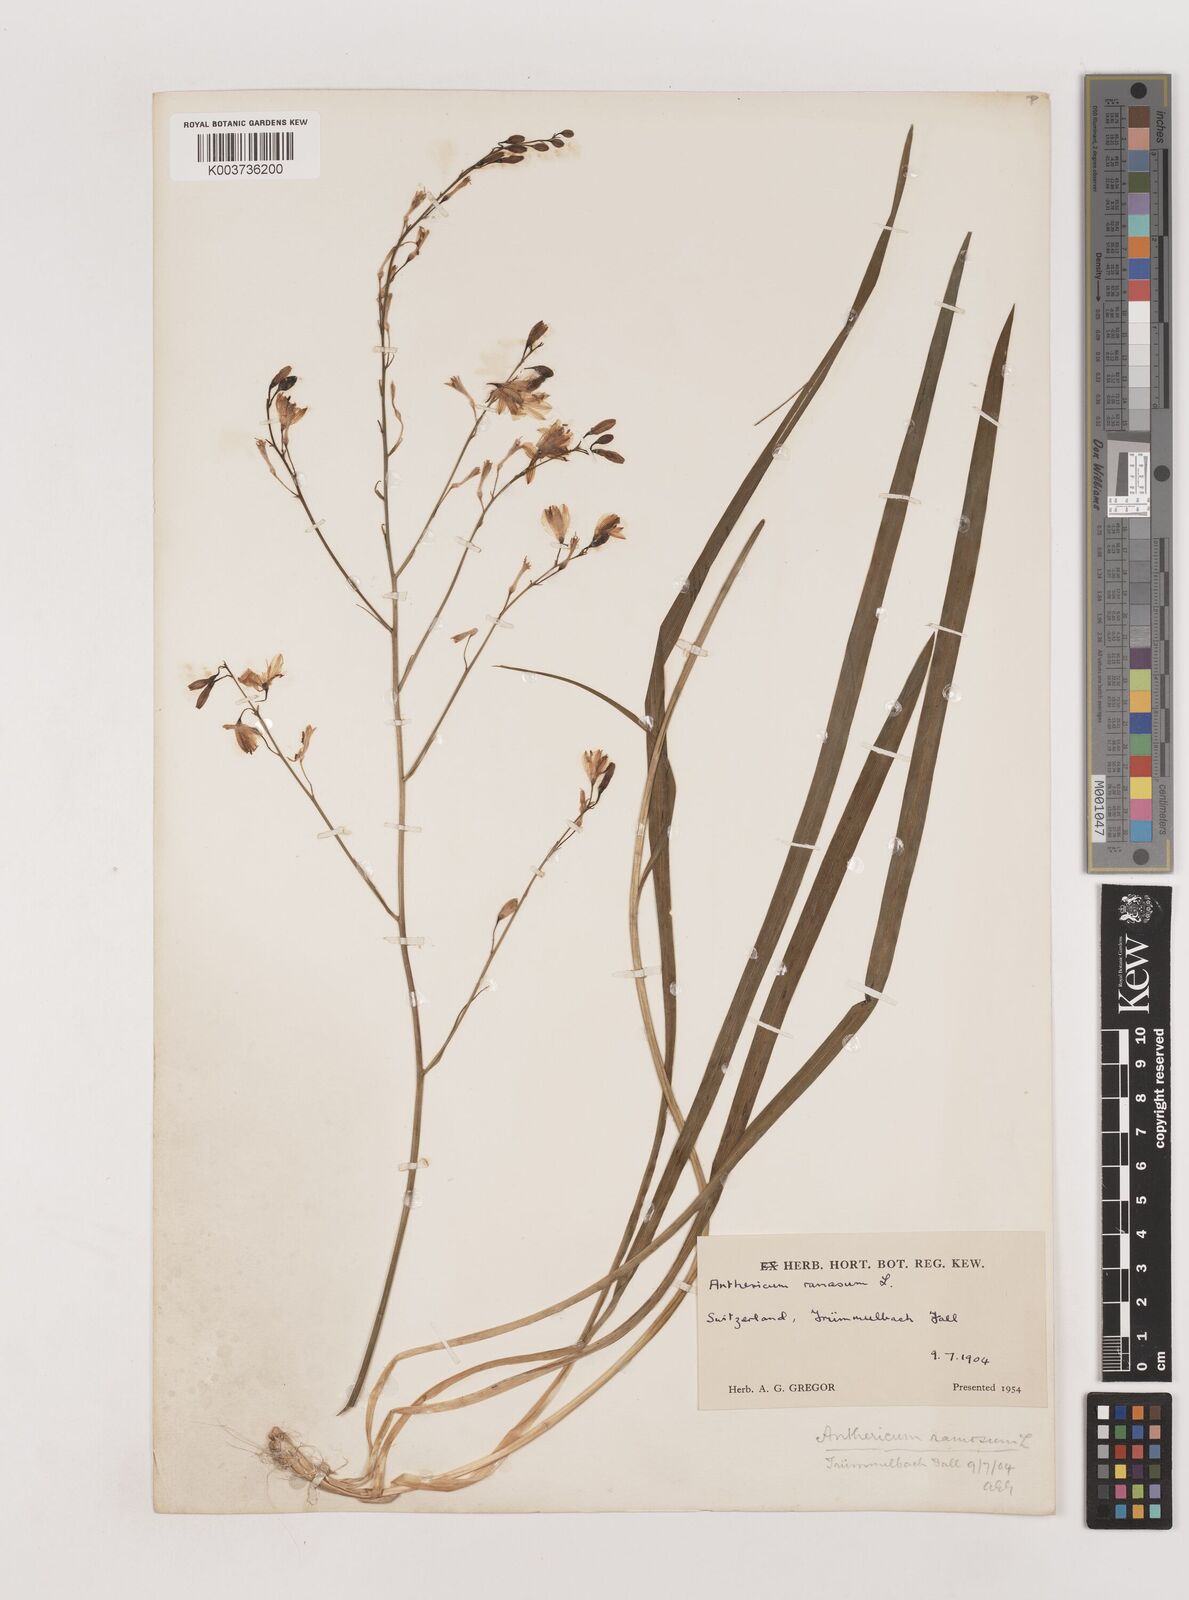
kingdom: Plantae
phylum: Tracheophyta
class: Liliopsida
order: Asparagales
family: Asparagaceae
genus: Anthericum
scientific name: Anthericum ramosum
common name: Branched st. bernard's-lily
